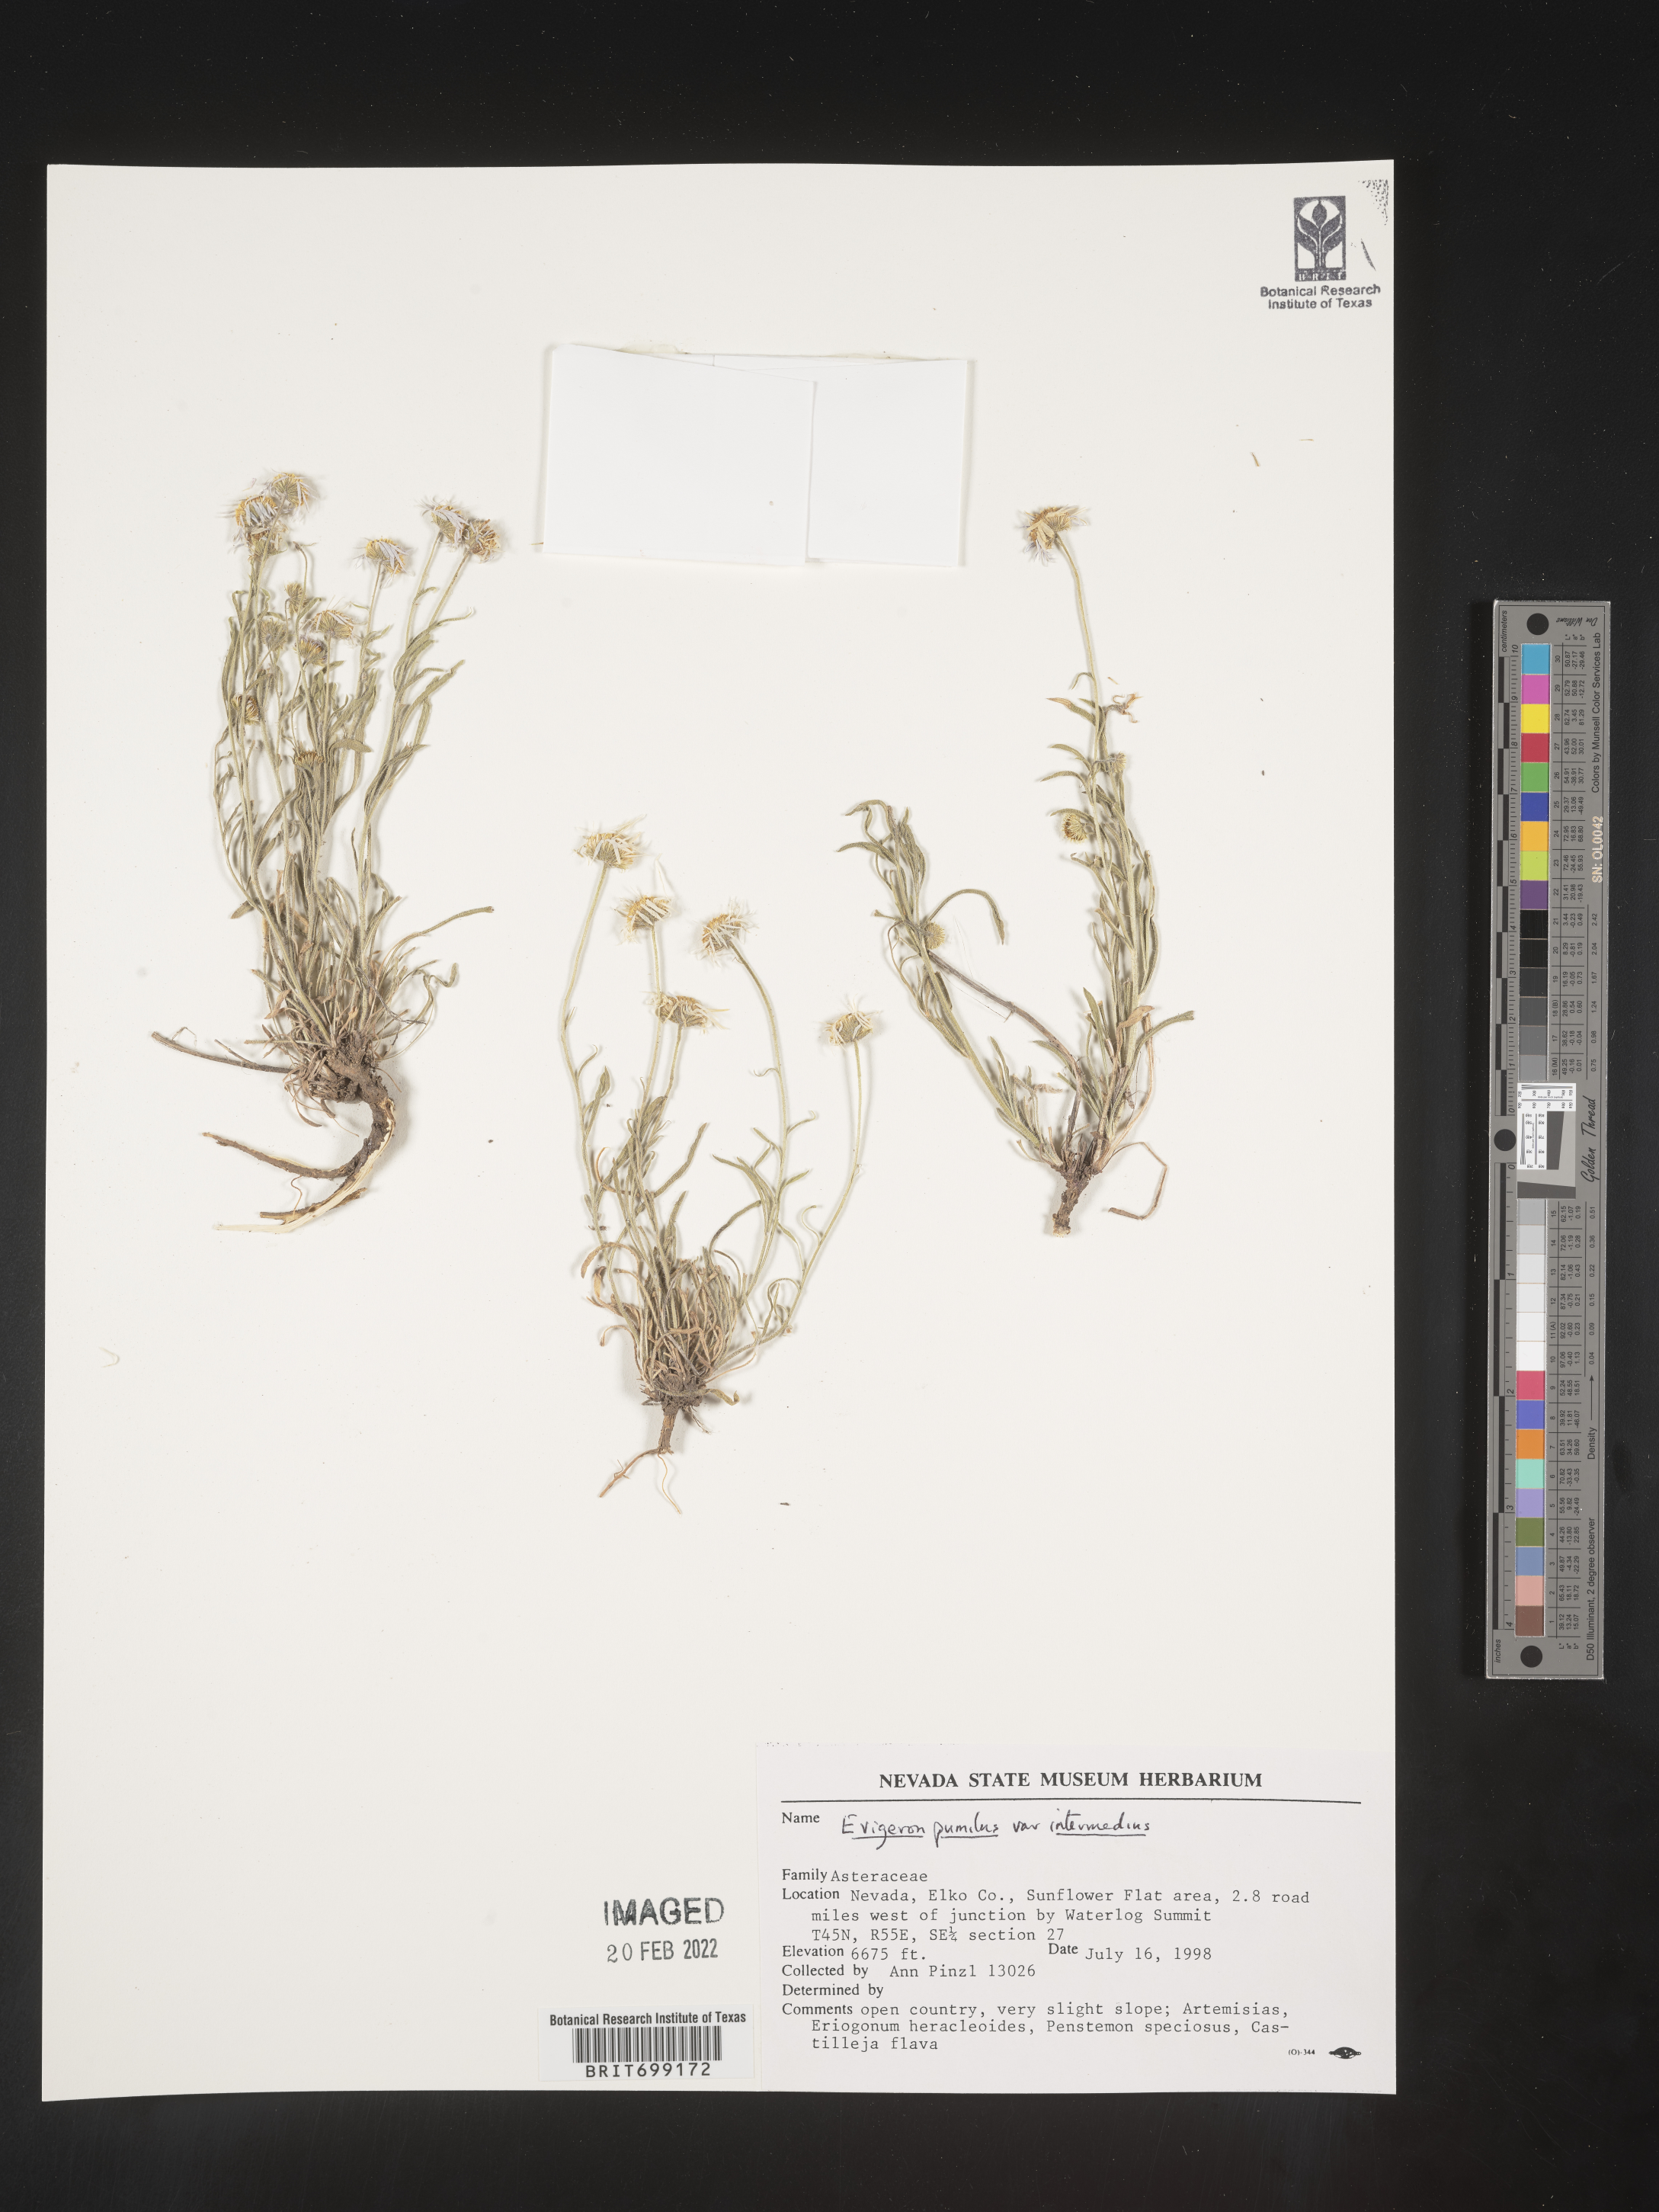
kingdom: Plantae
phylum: Tracheophyta
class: Magnoliopsida
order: Asterales
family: Asteraceae
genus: Erigeron
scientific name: Erigeron pumilus
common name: Shaggy fleabane
